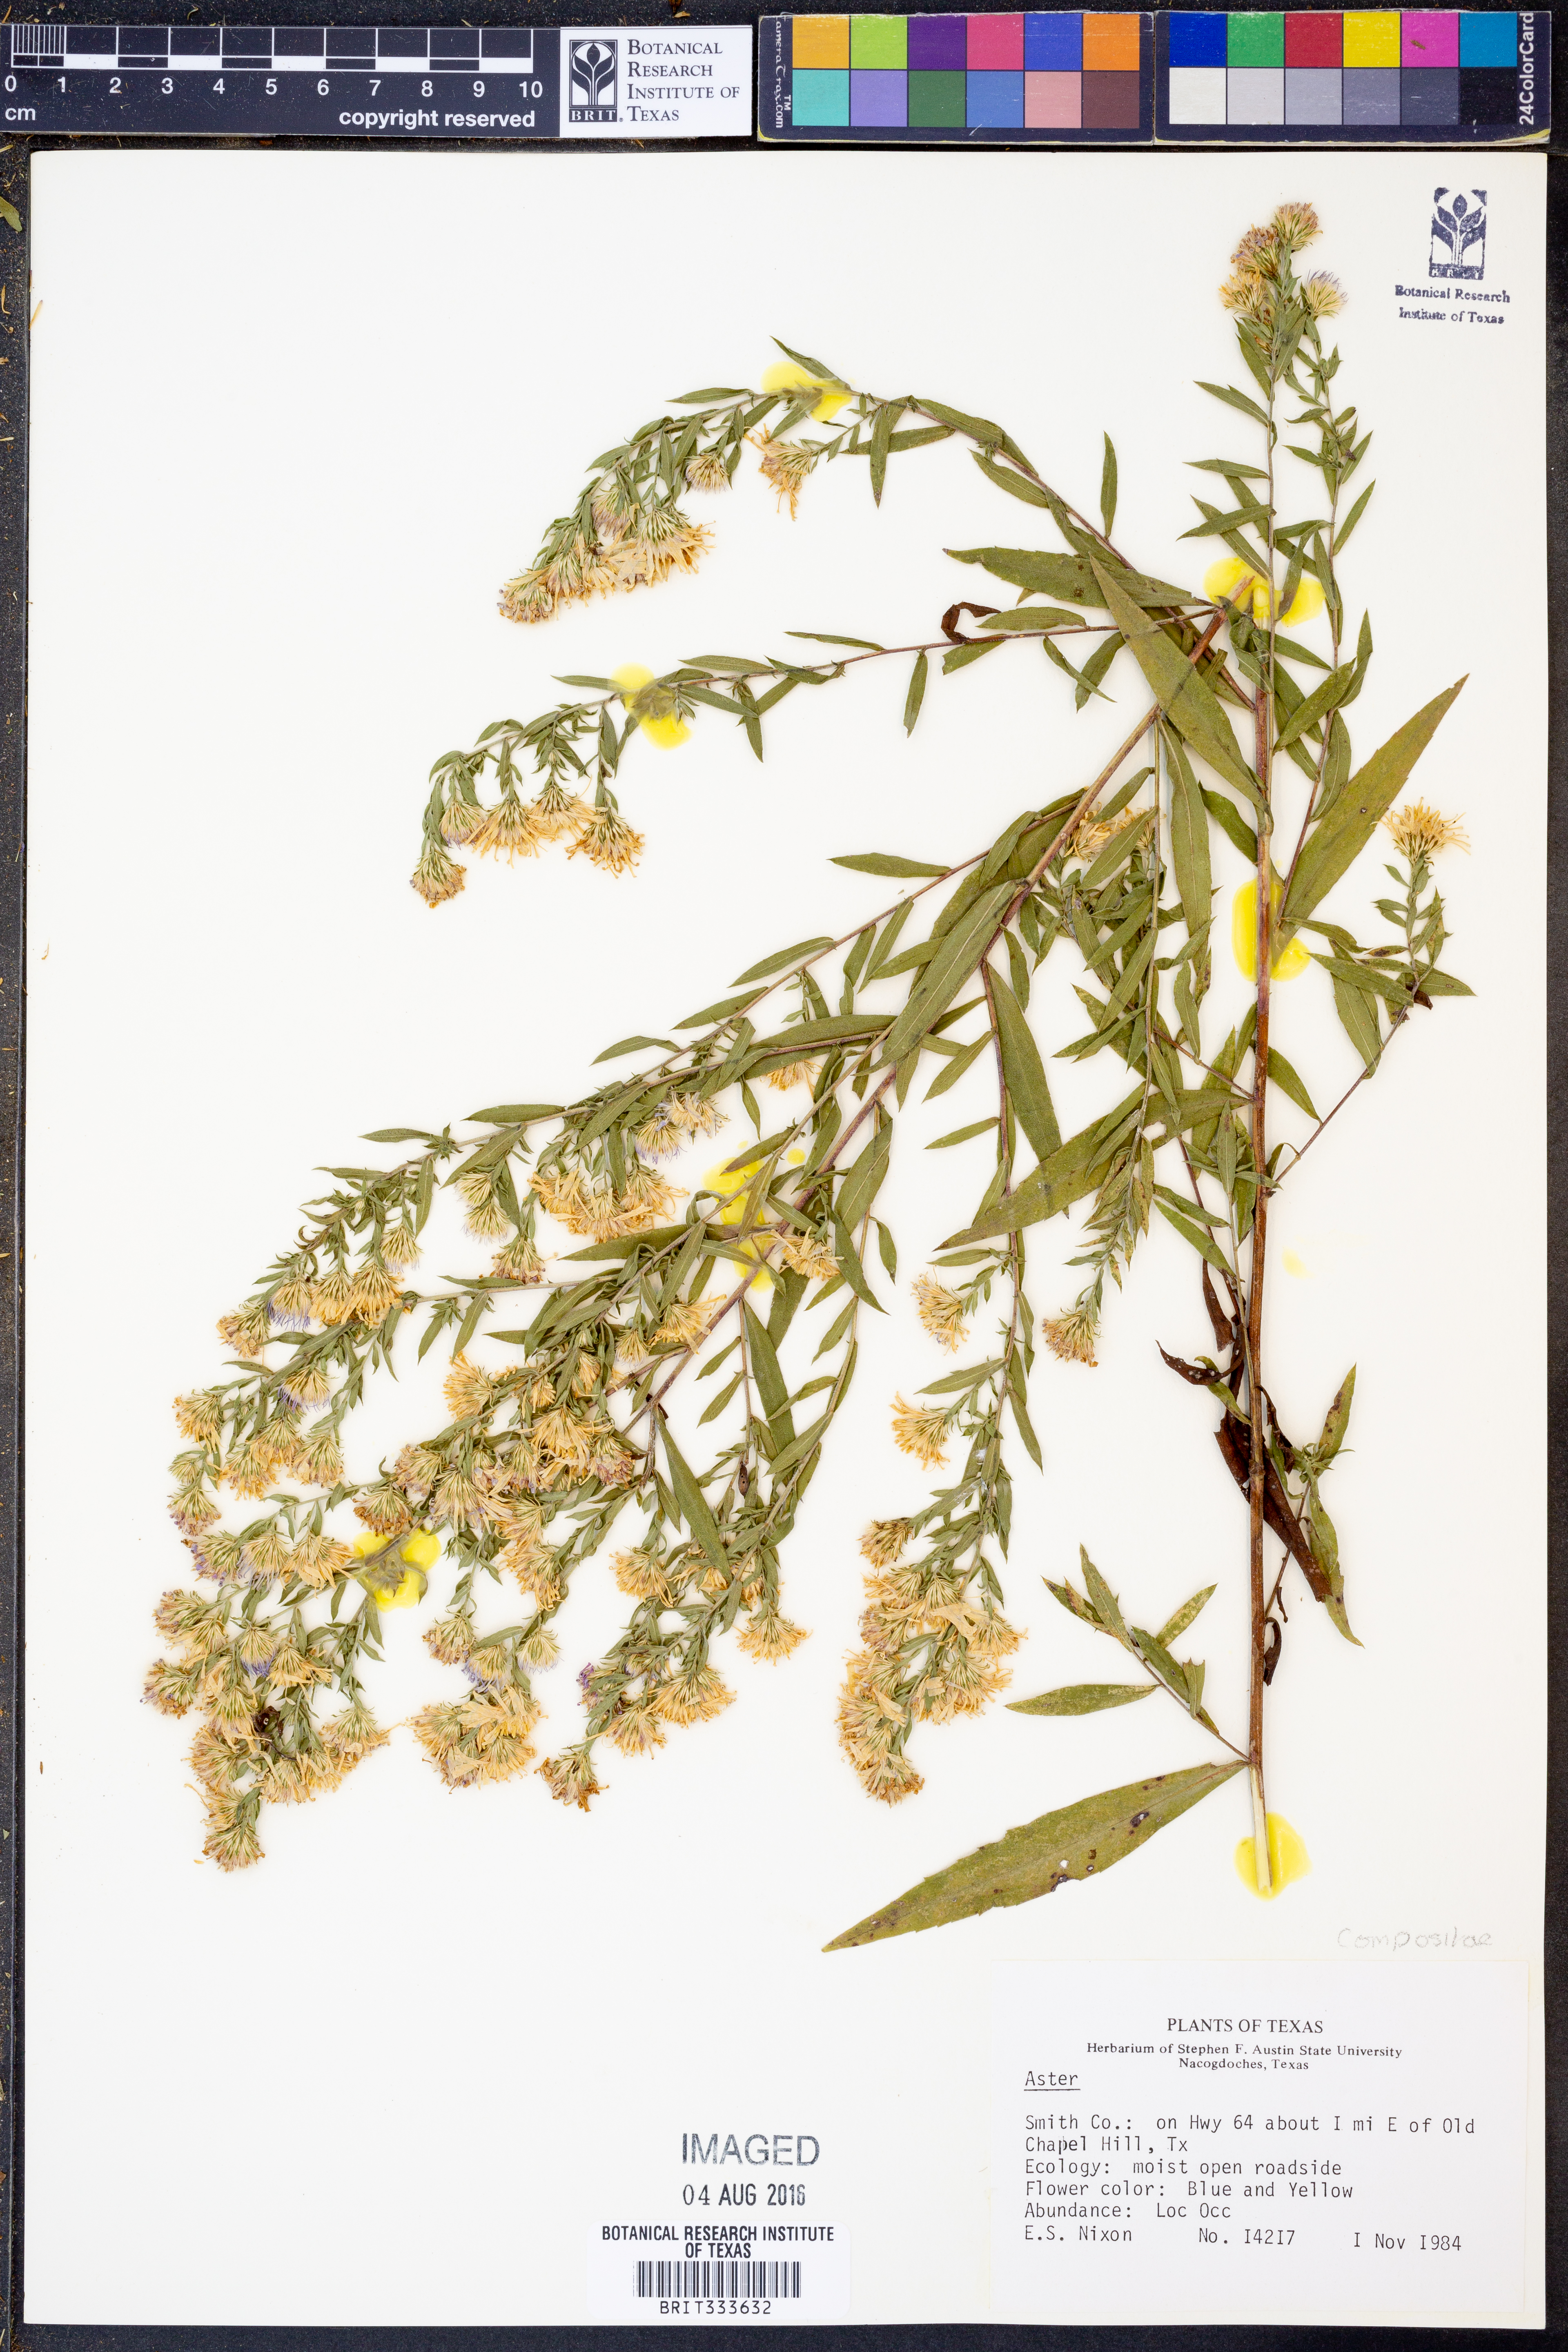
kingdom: Plantae
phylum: Tracheophyta
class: Magnoliopsida
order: Asterales
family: Asteraceae
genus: Aster
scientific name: Aster
